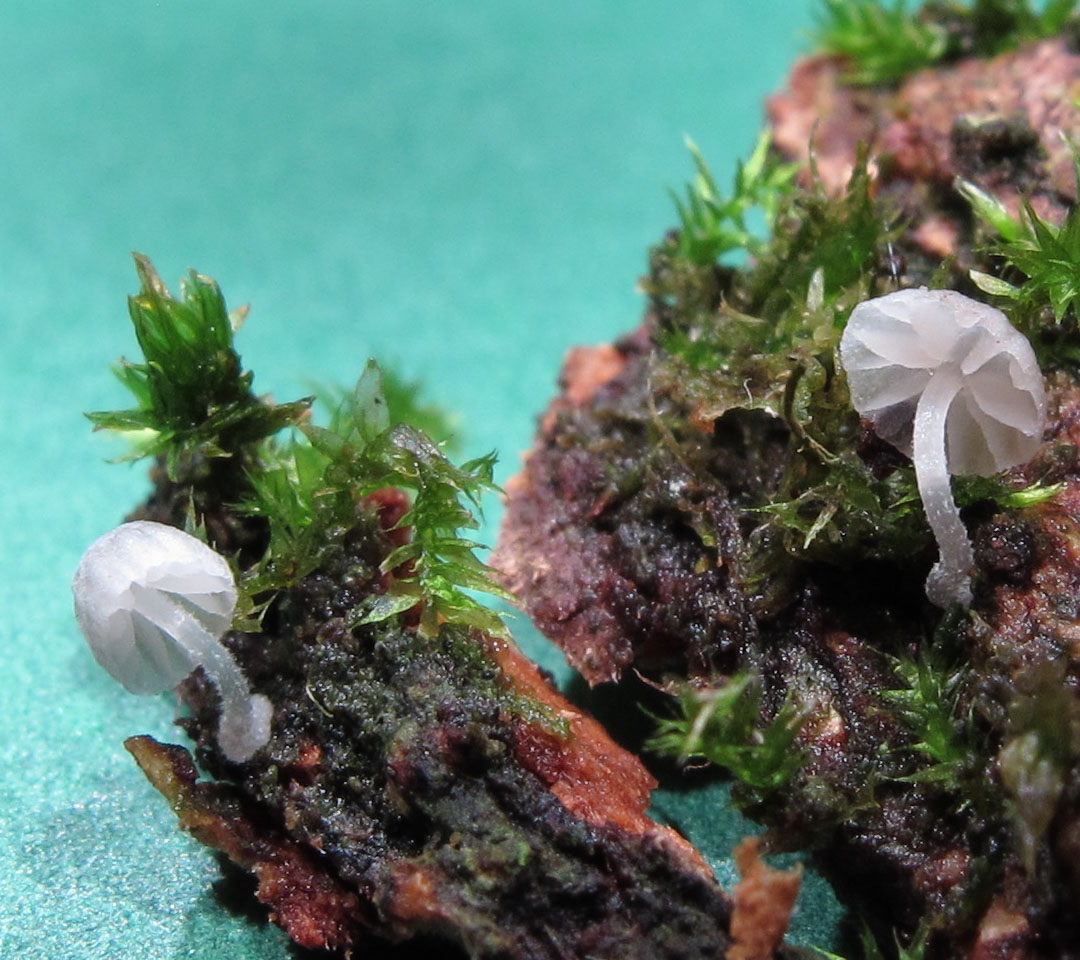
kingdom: Fungi
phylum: Basidiomycota
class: Agaricomycetes
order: Agaricales
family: Mycenaceae
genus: Mycena
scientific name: Mycena clavularis
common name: dunskivet huesvamp
